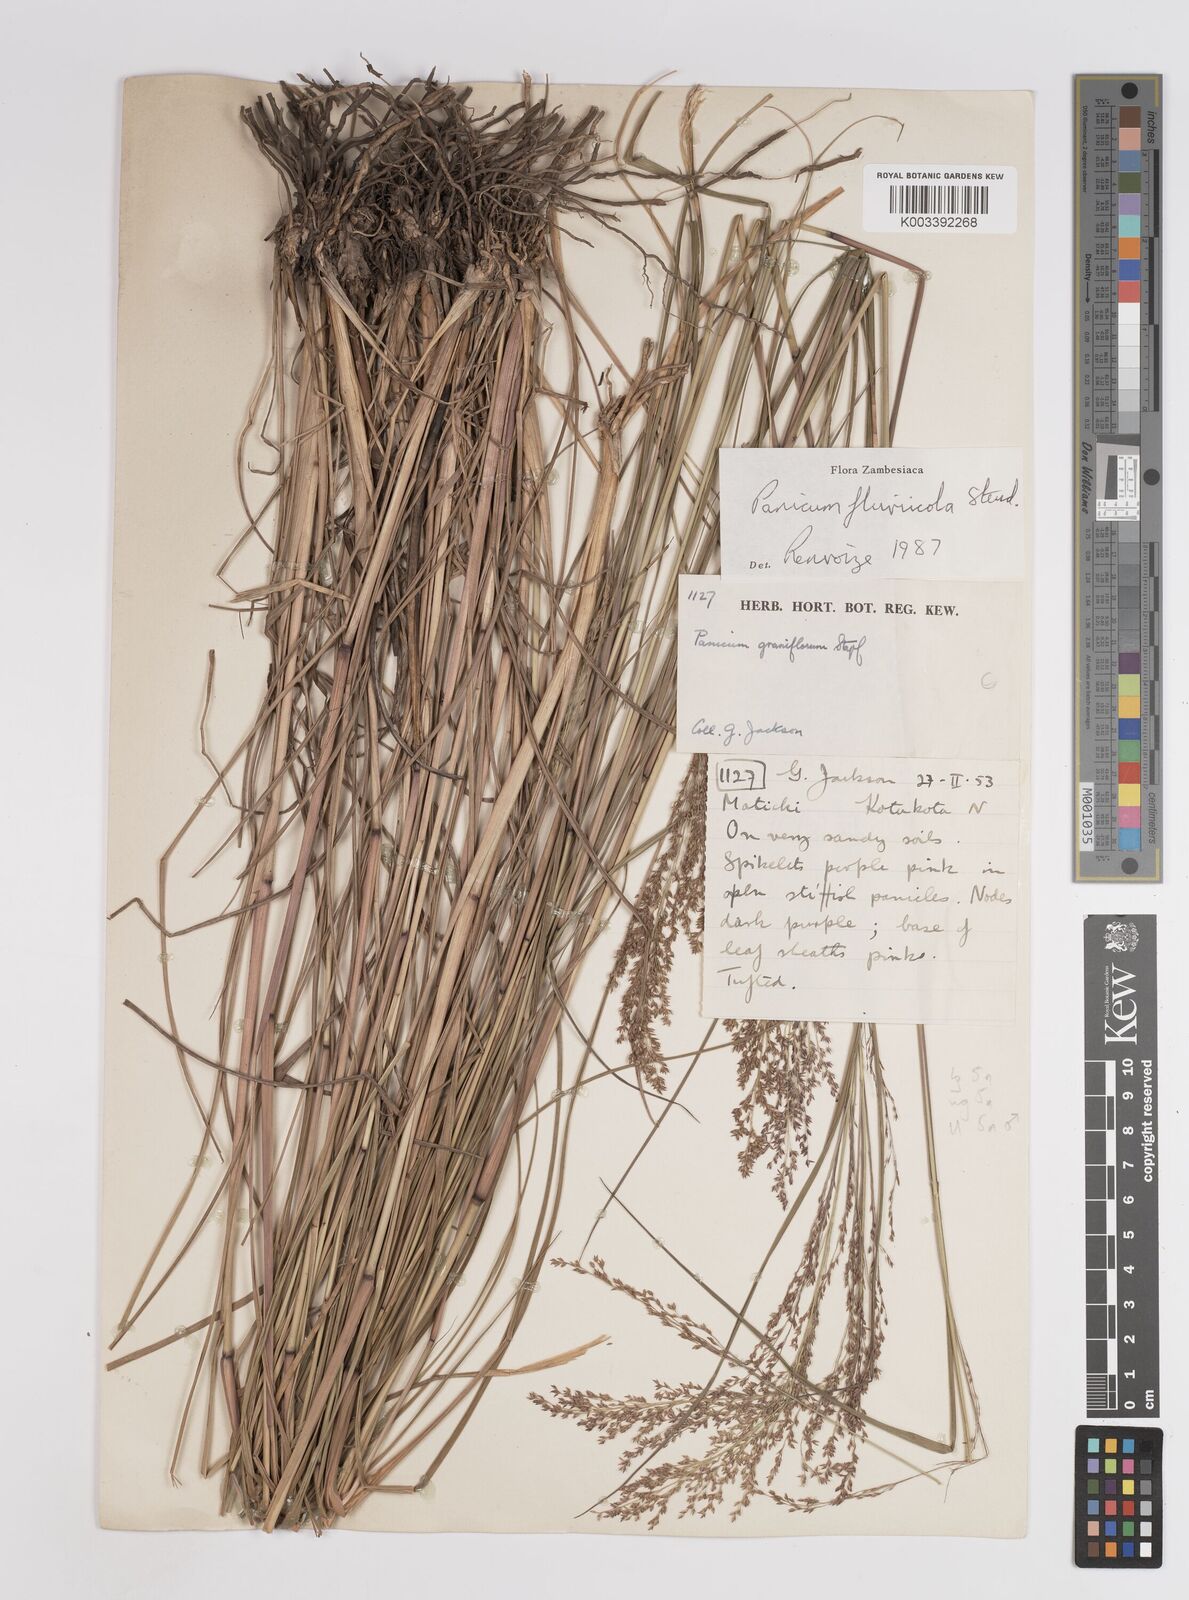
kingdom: Plantae
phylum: Tracheophyta
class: Liliopsida
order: Poales
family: Poaceae
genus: Panicum
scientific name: Panicum fluviicola
